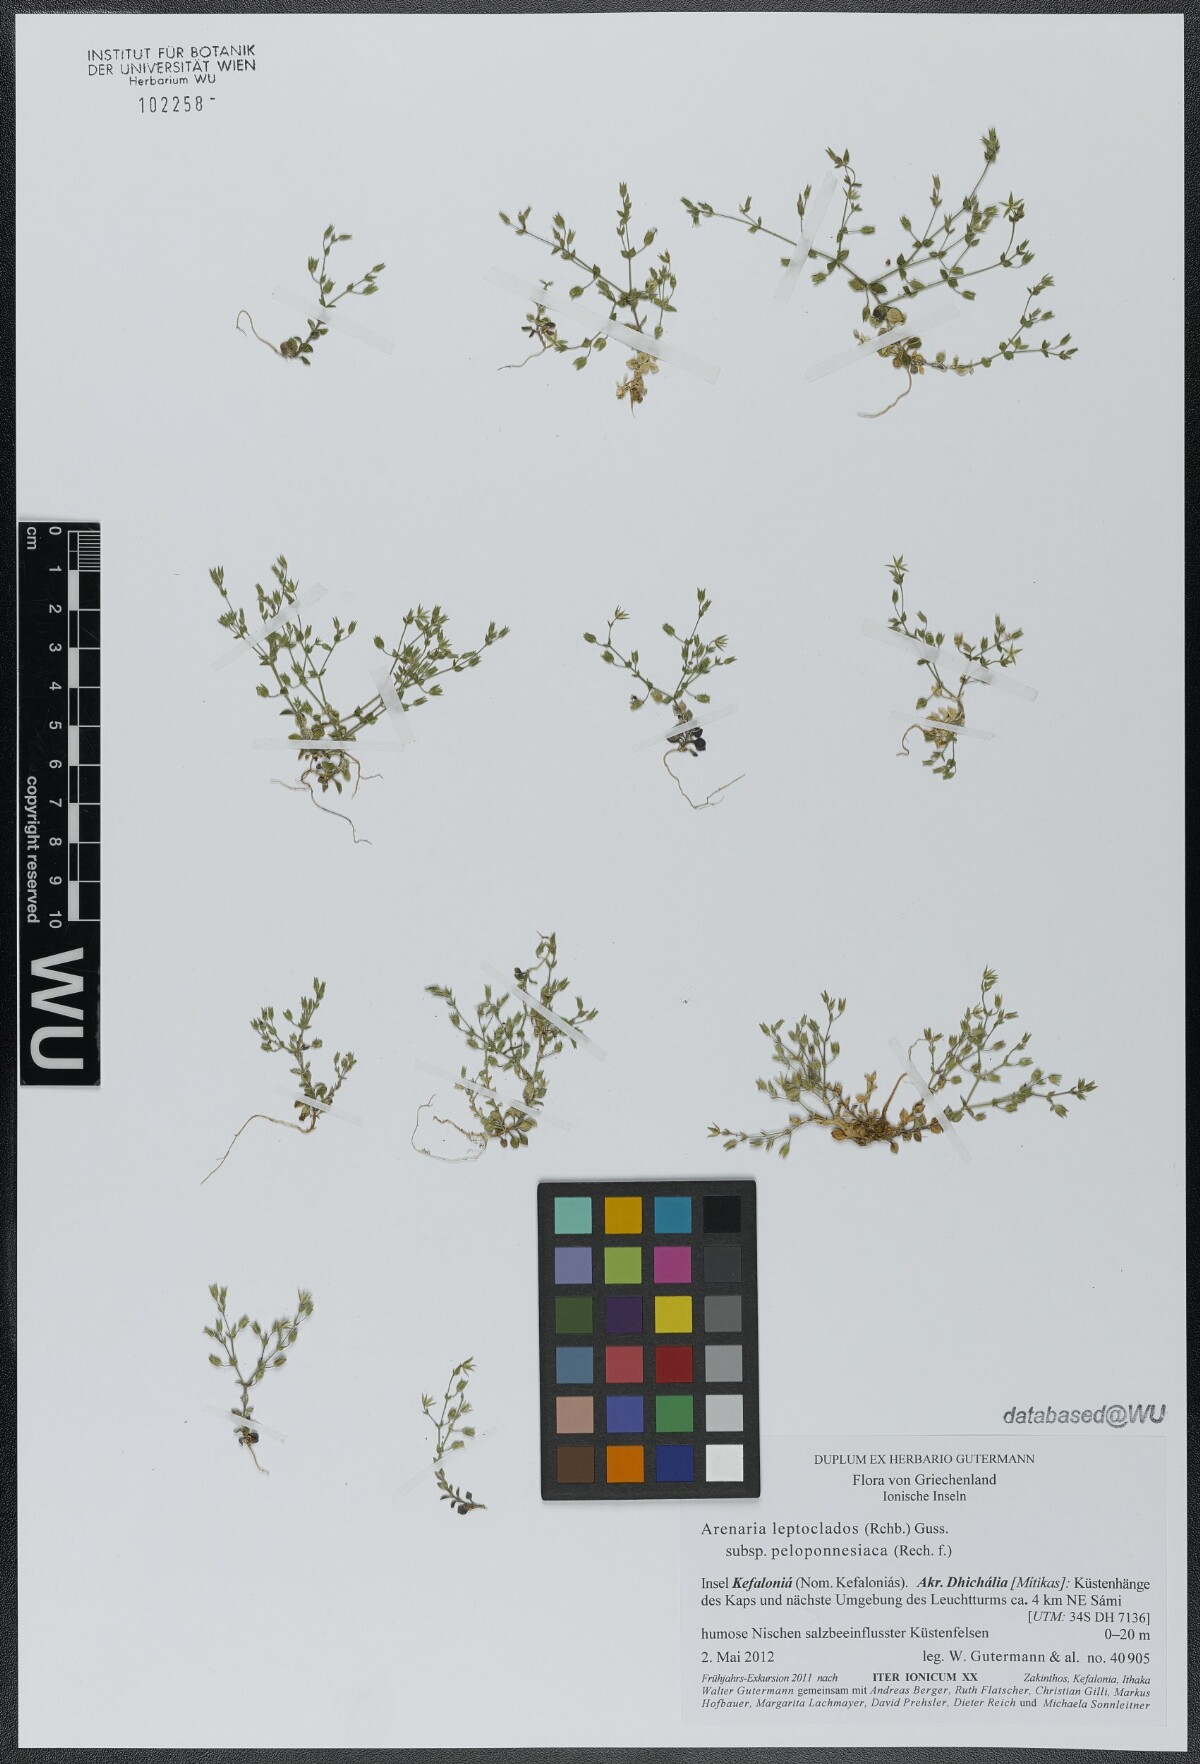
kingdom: Plantae
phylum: Tracheophyta
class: Magnoliopsida
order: Caryophyllales
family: Caryophyllaceae
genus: Arenaria
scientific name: Arenaria leptoclados
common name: Thyme-leaved sandwort
